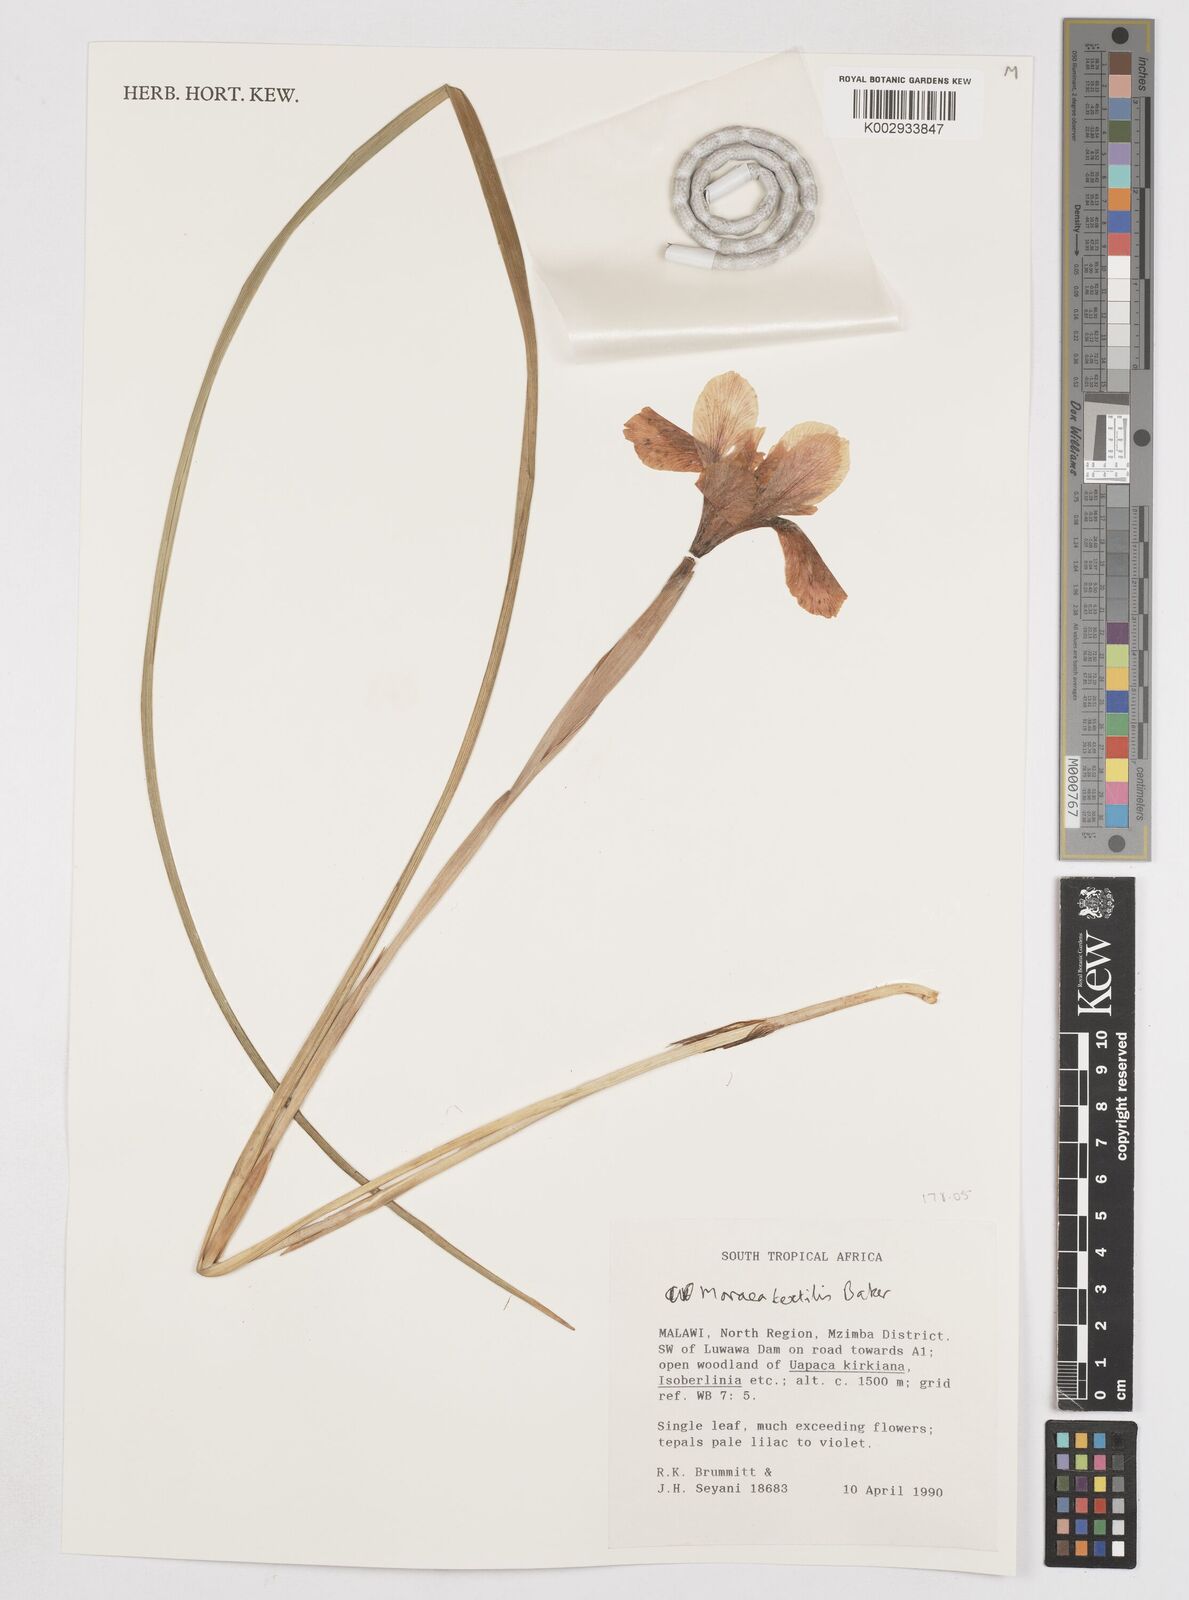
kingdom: Plantae
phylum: Tracheophyta
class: Liliopsida
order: Asparagales
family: Iridaceae
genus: Moraea
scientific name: Moraea textilis
